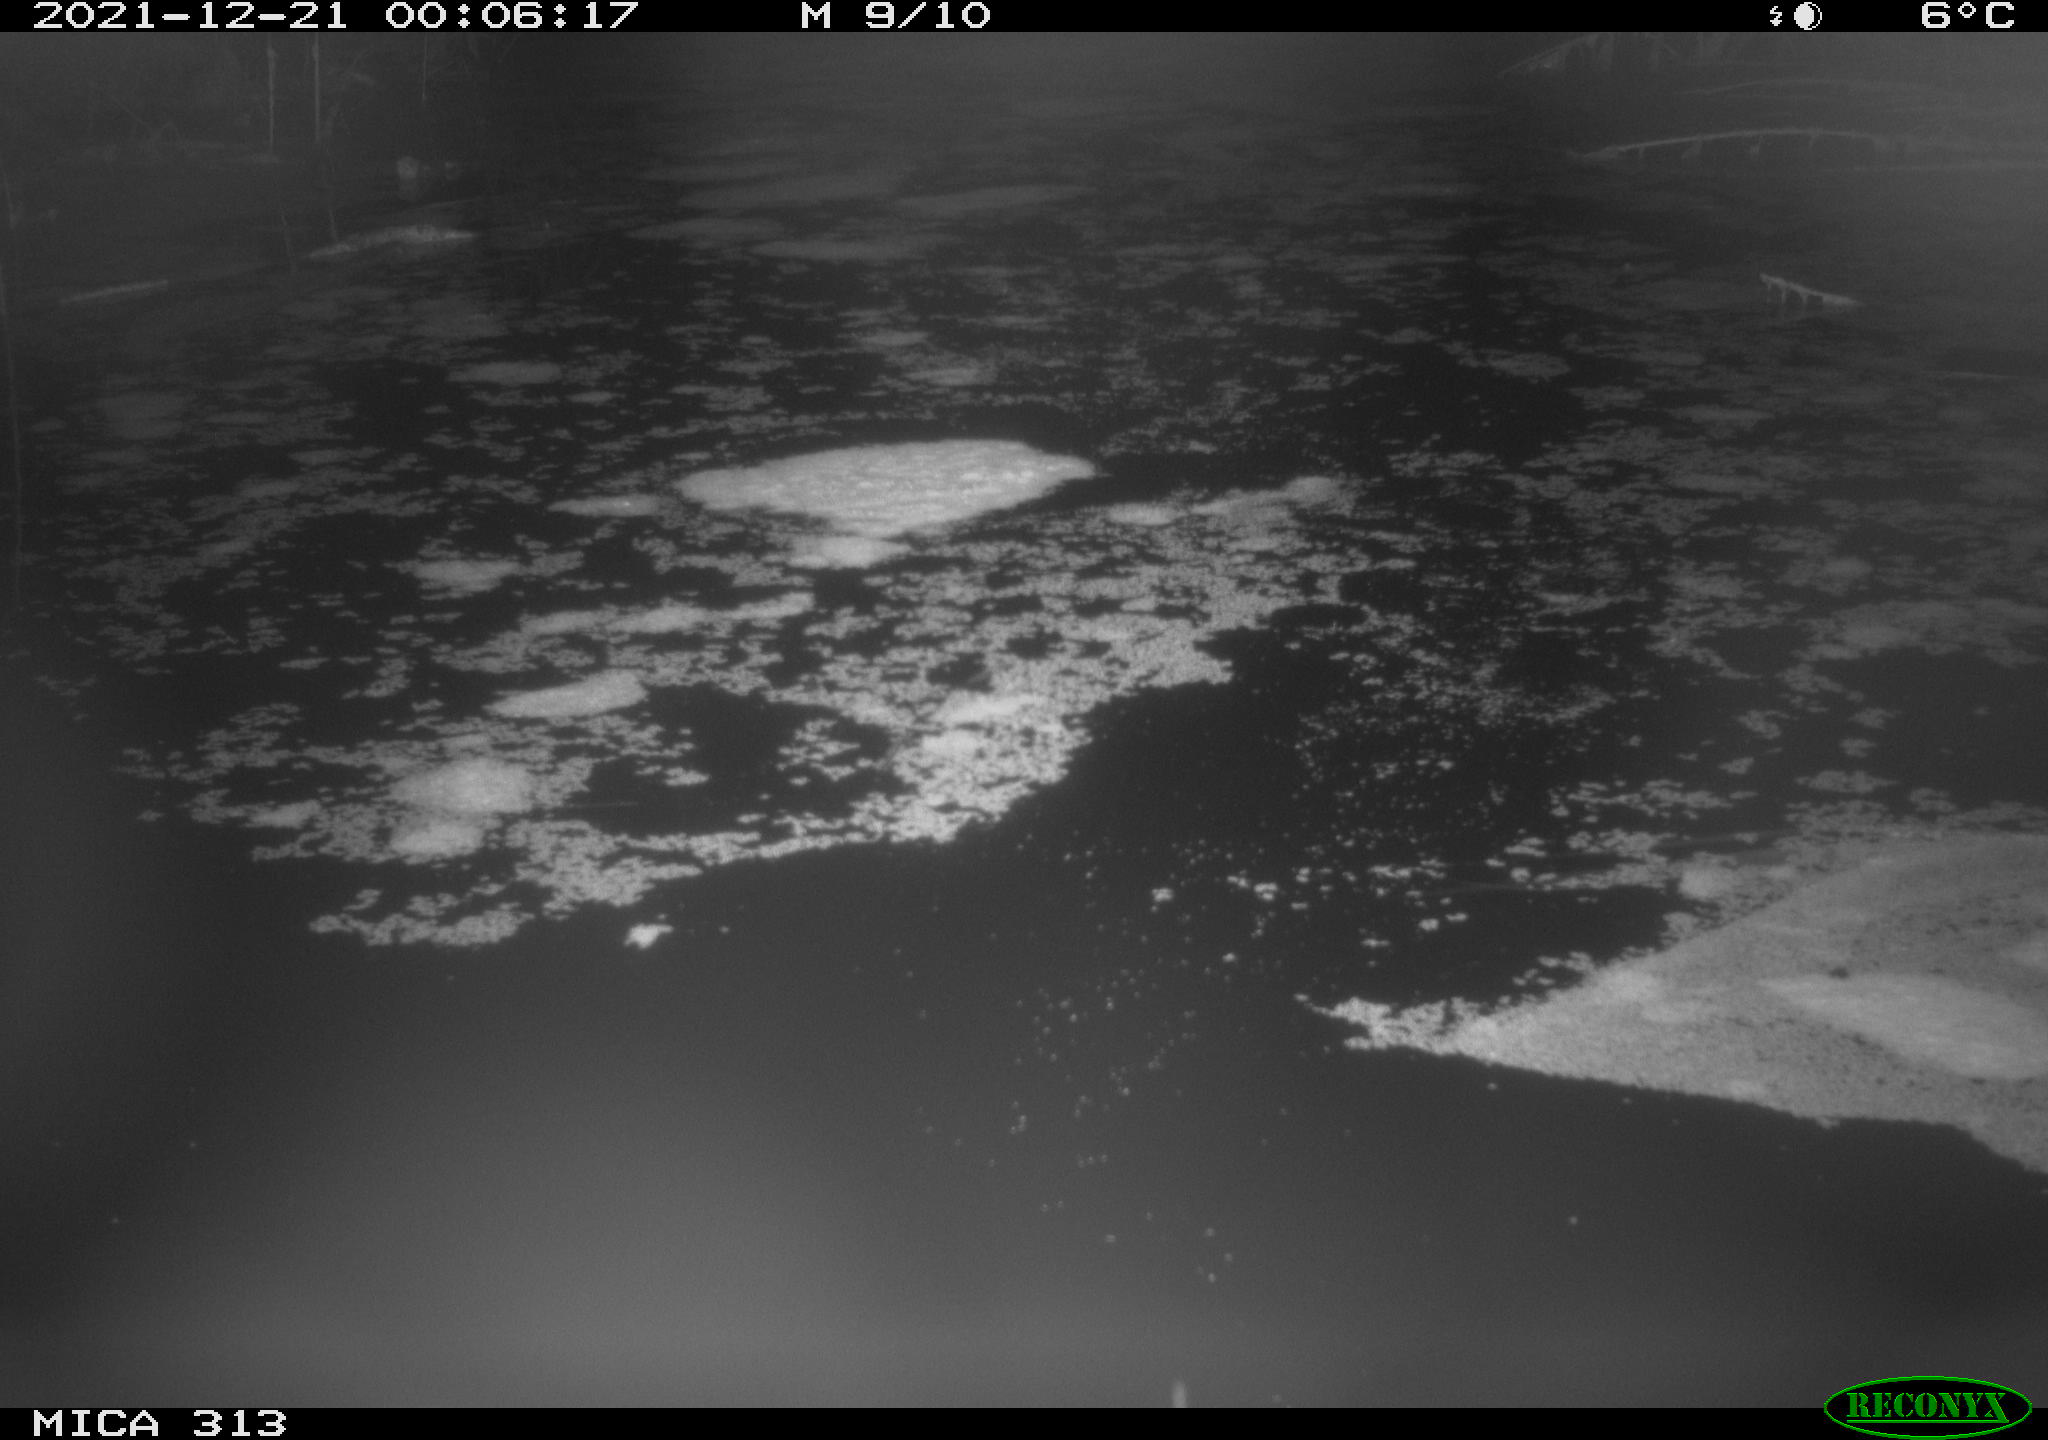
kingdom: Animalia
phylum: Chordata
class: Aves
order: Gruiformes
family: Rallidae
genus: Fulica
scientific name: Fulica atra
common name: Eurasian coot
